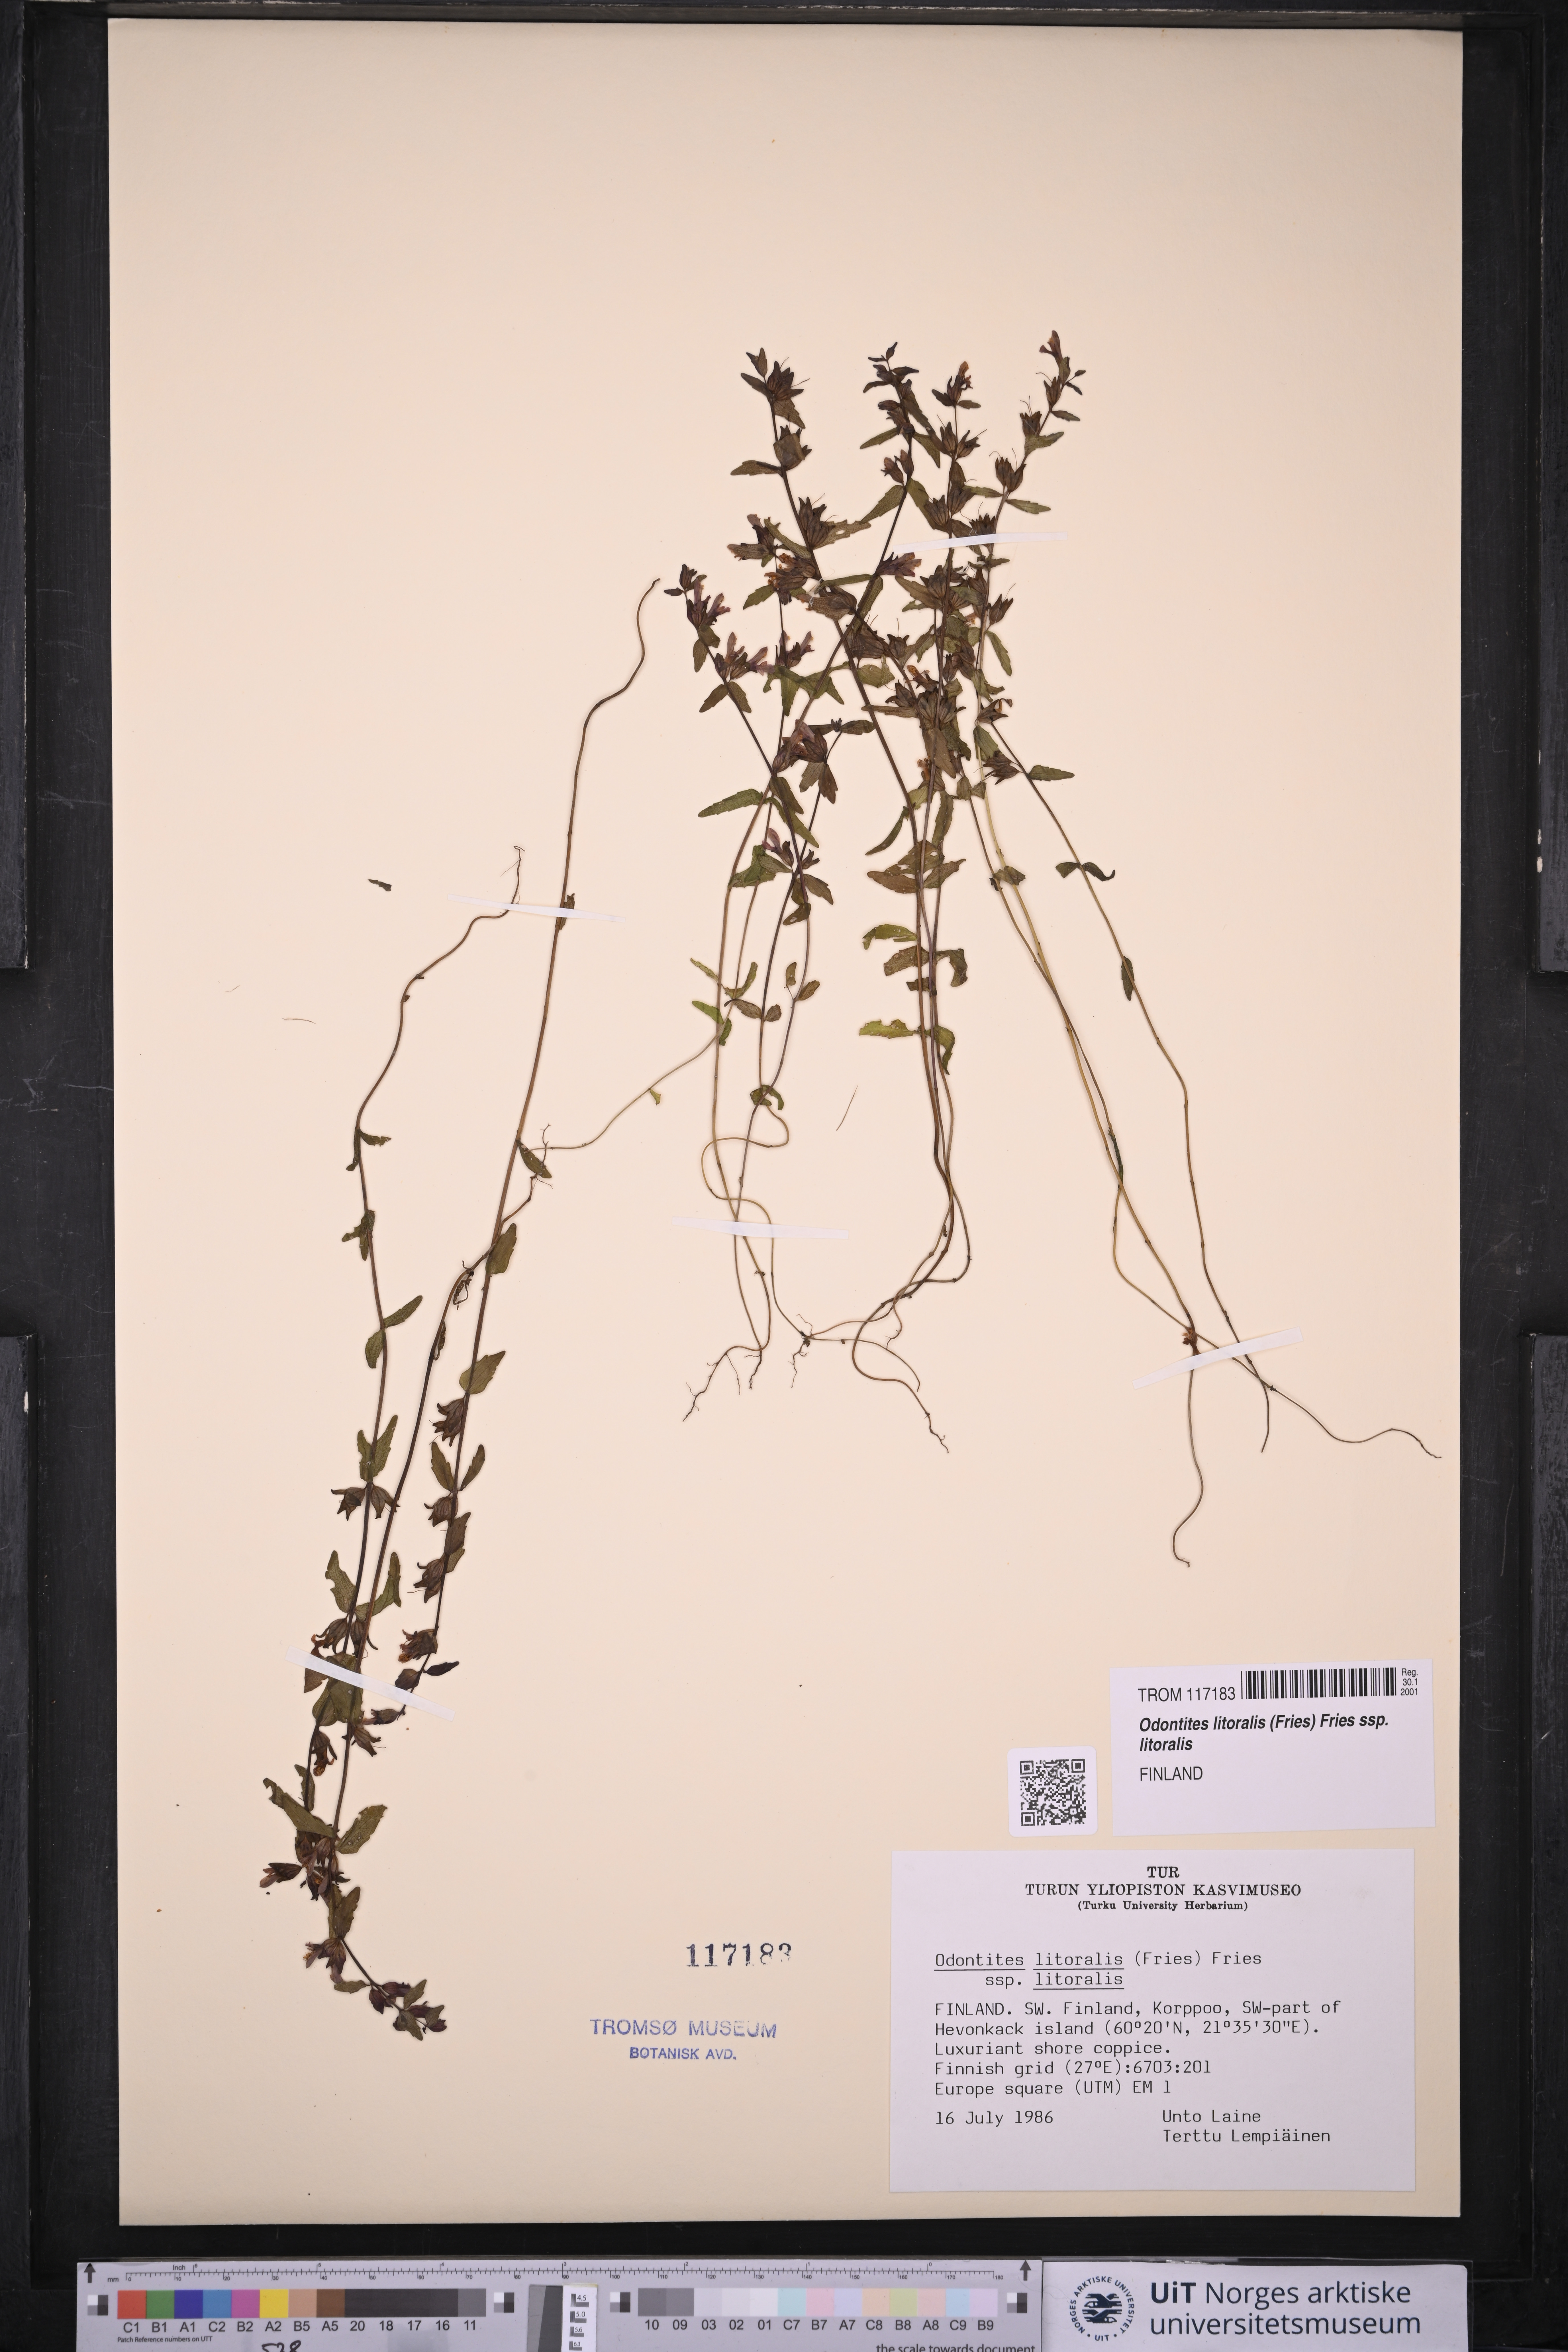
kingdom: Plantae
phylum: Tracheophyta
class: Magnoliopsida
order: Lamiales
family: Orobanchaceae
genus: Odontites
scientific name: Odontites litoralis
